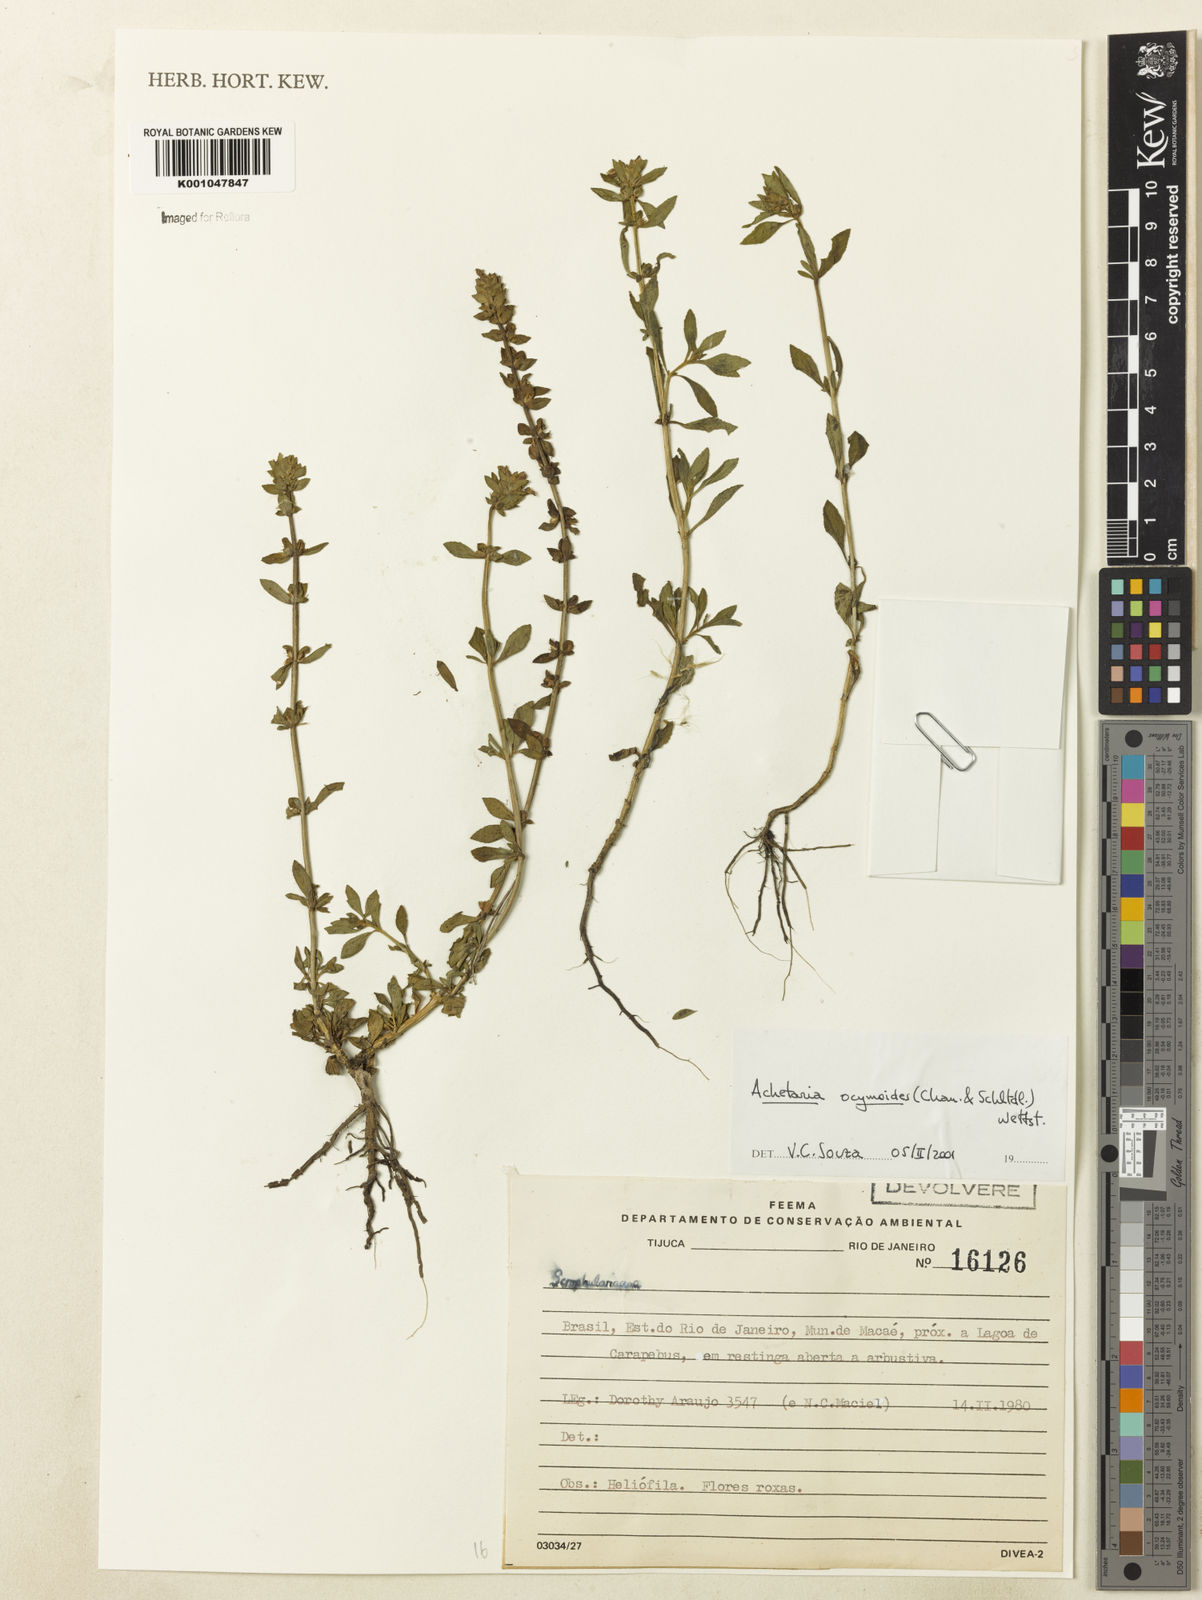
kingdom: Plantae
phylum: Tracheophyta
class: Magnoliopsida
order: Lamiales
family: Plantaginaceae
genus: Matourea
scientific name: Matourea ocymoides
